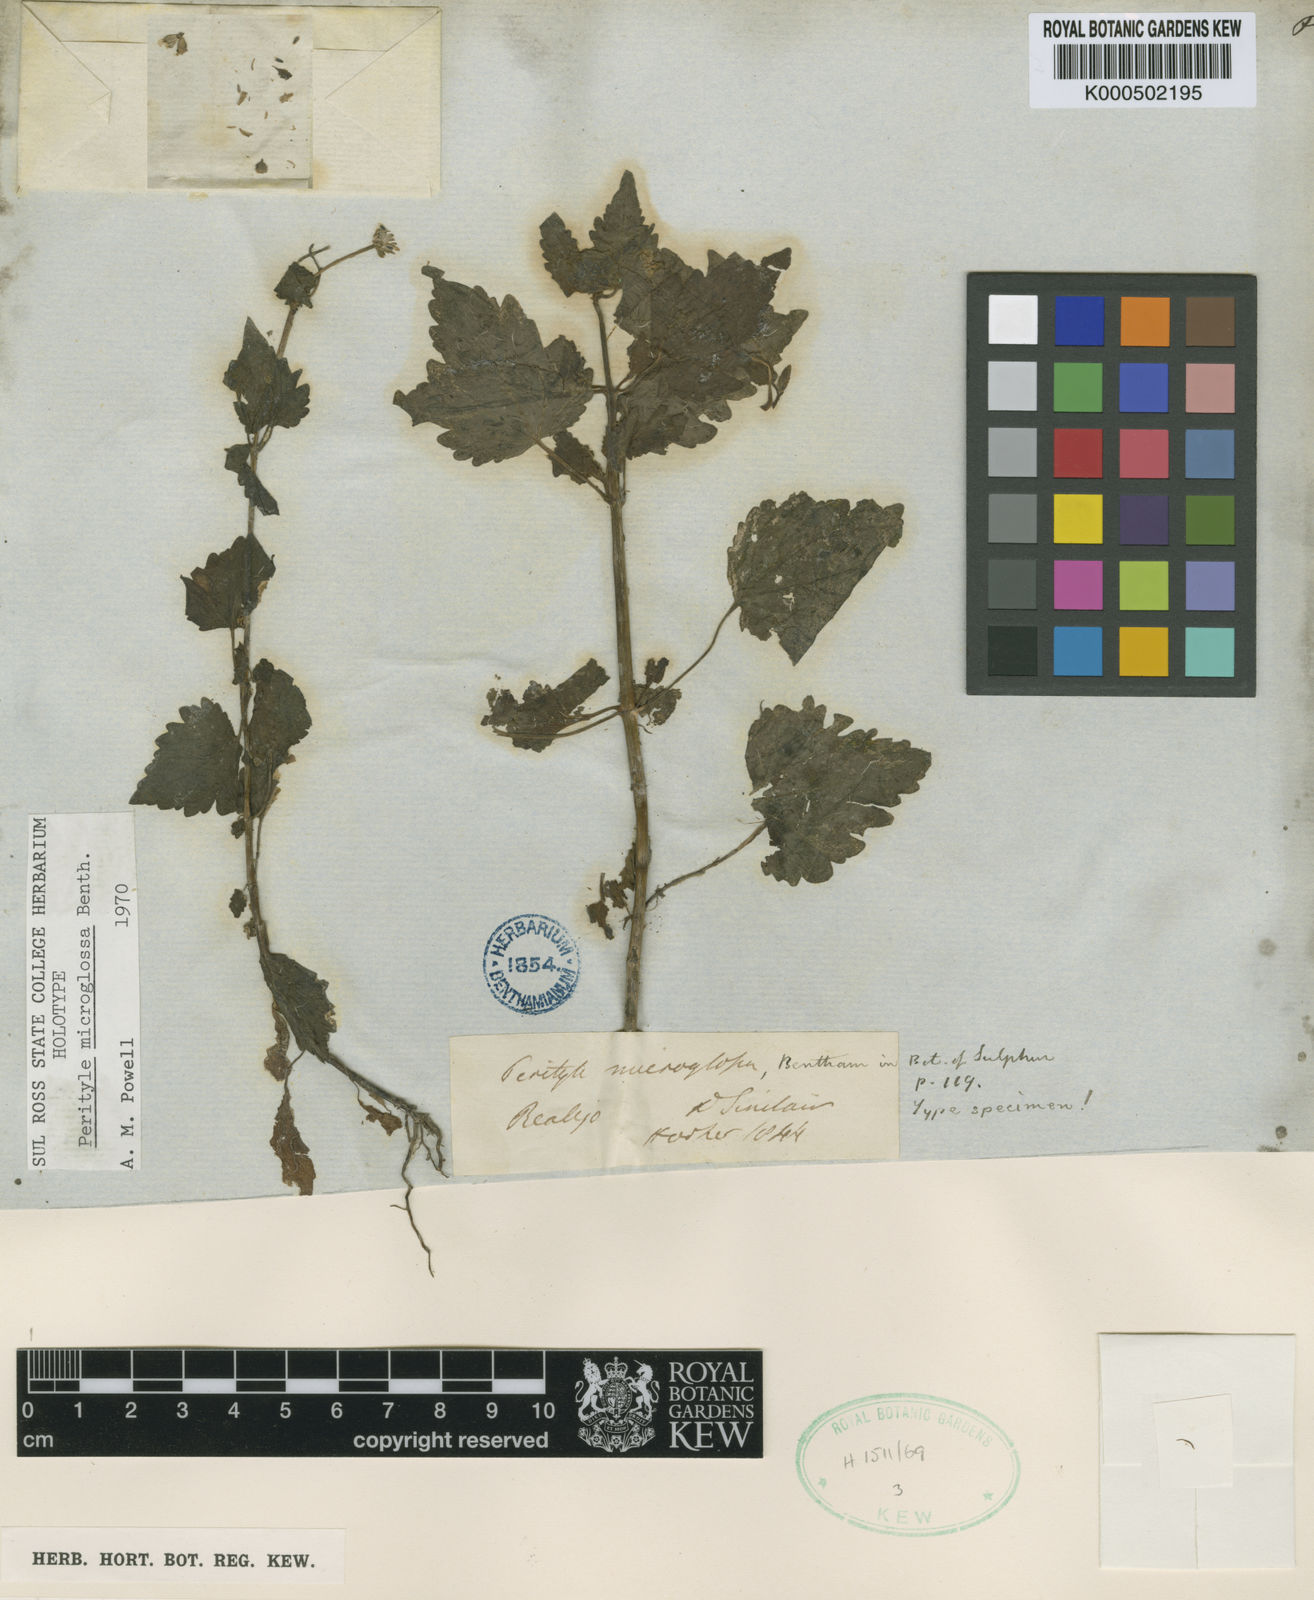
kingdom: Plantae
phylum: Tracheophyta
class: Magnoliopsida
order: Asterales
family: Asteraceae
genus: Galinsogeopsis
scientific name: Galinsogeopsis spilanthoides
